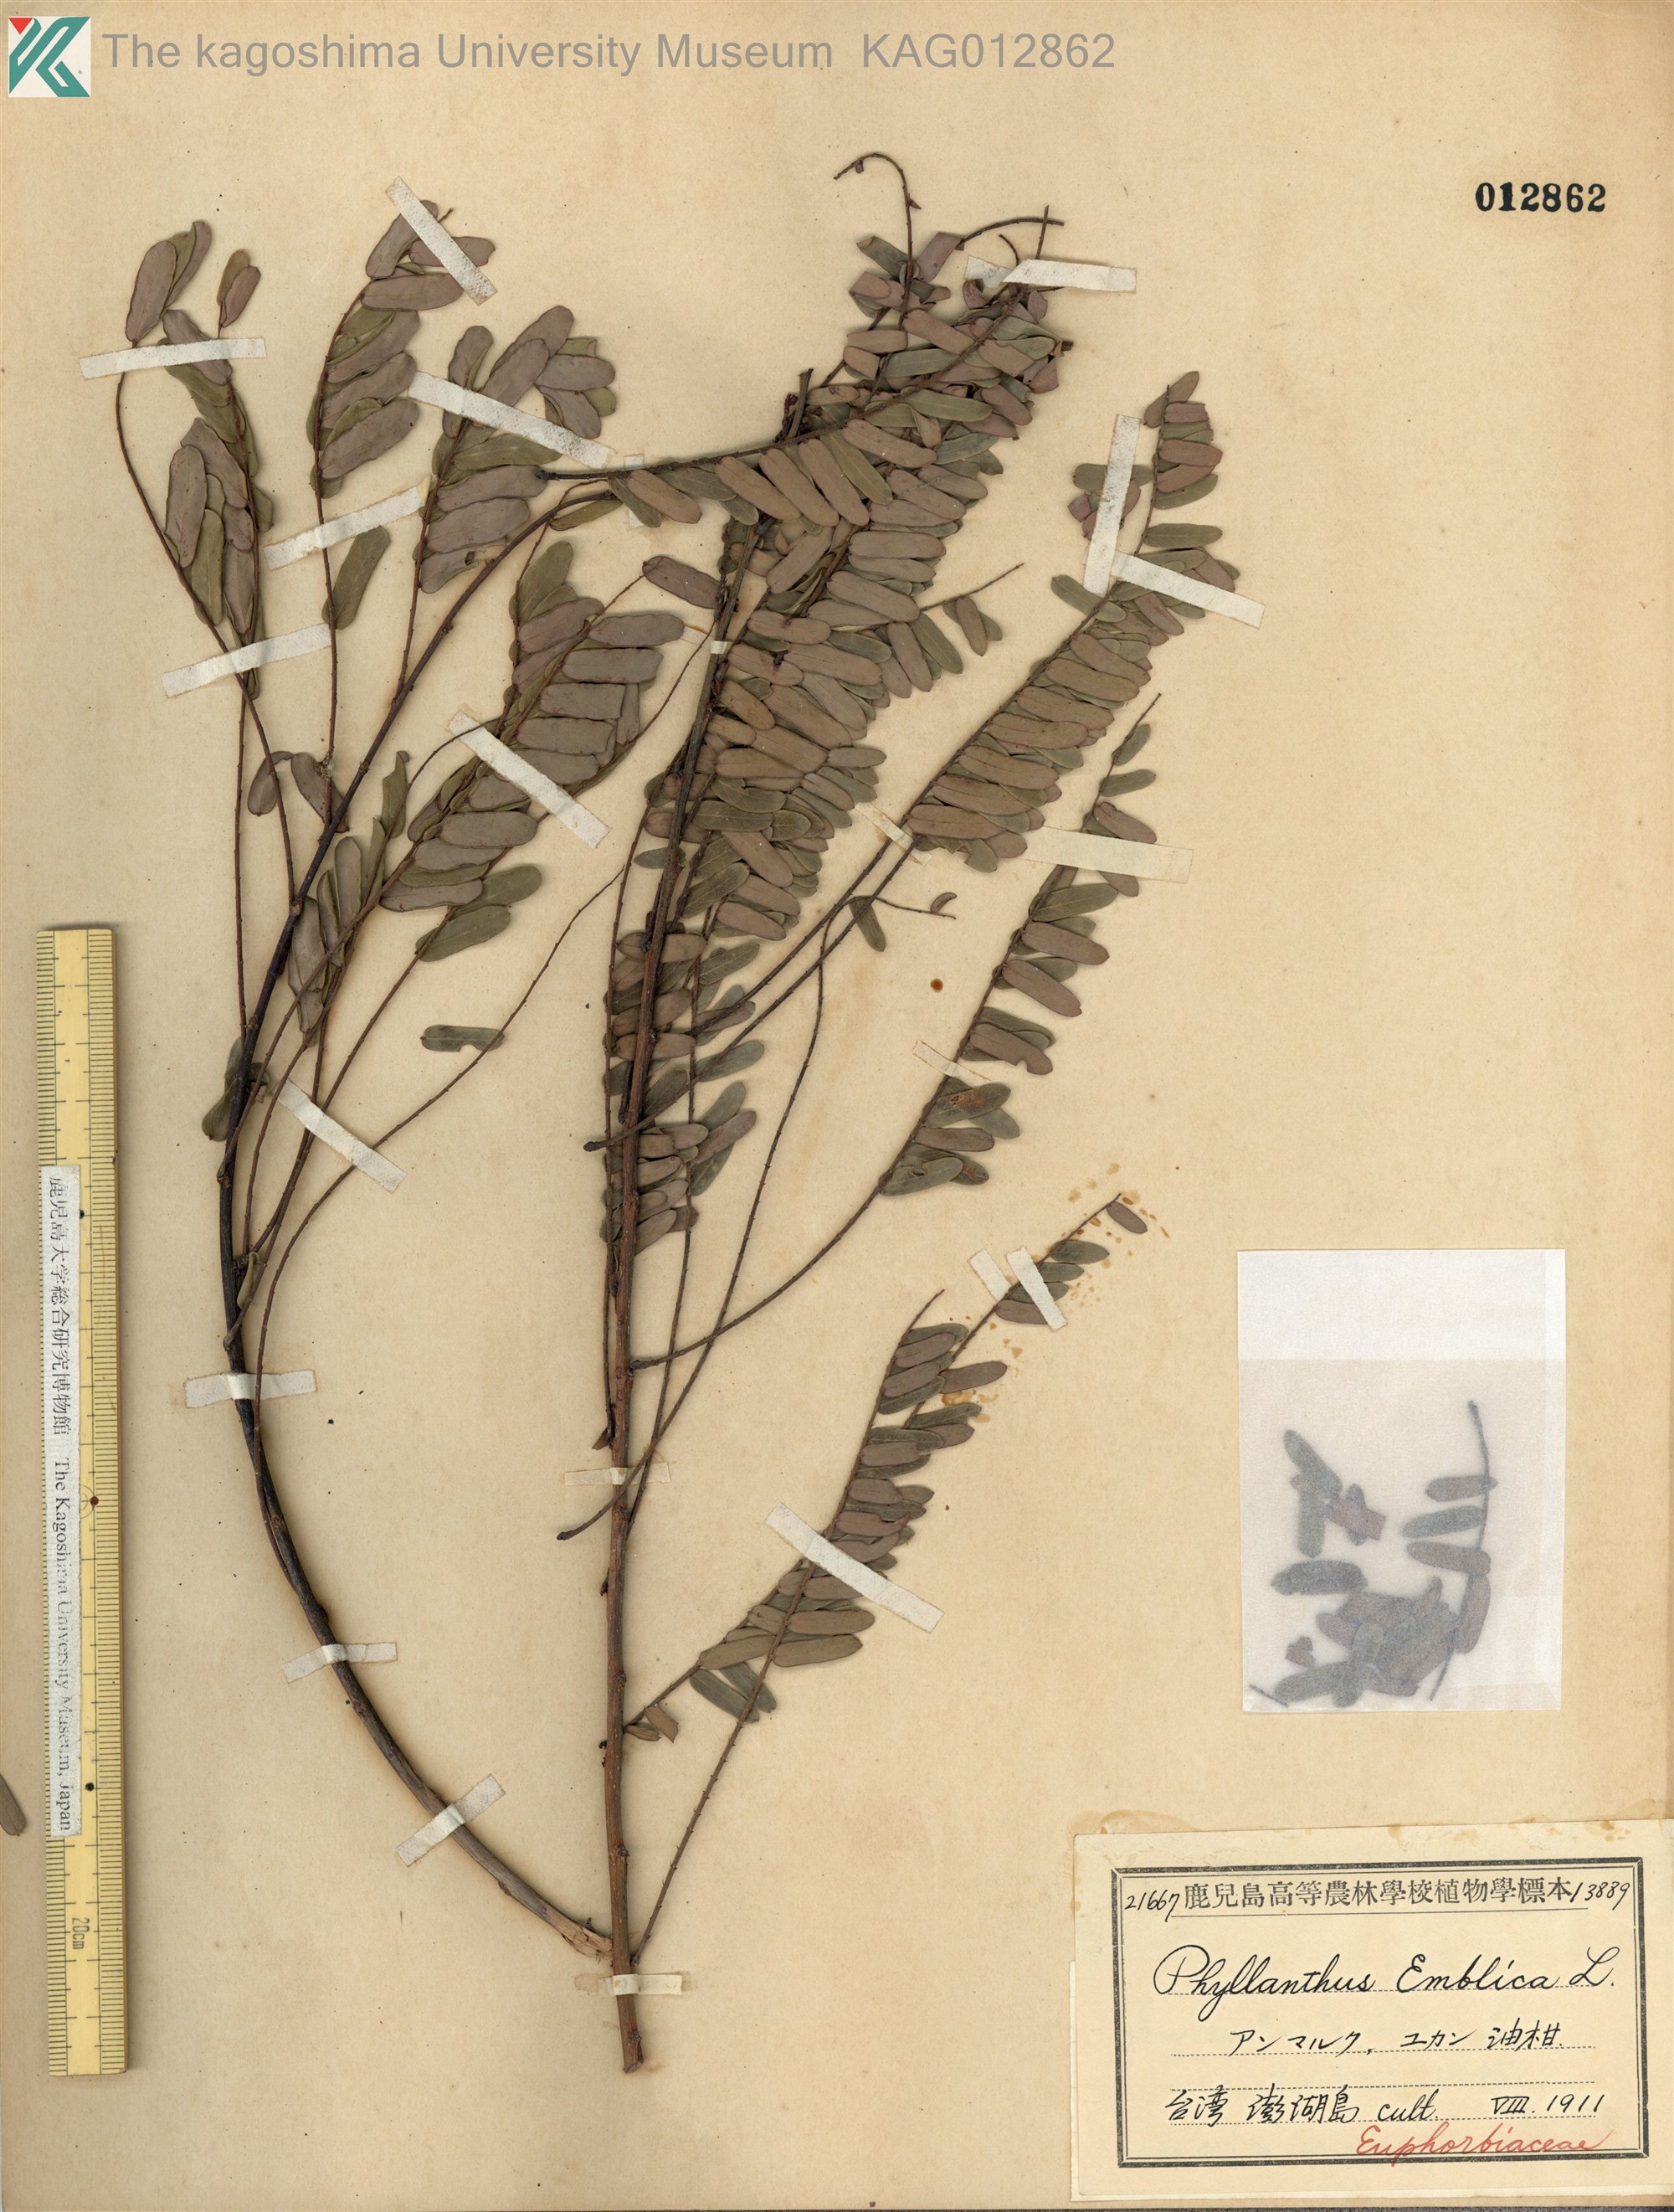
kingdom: Plantae
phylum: Tracheophyta
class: Magnoliopsida
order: Malpighiales
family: Phyllanthaceae
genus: Phyllanthus
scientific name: Phyllanthus emblica
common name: Indian gooseberry
